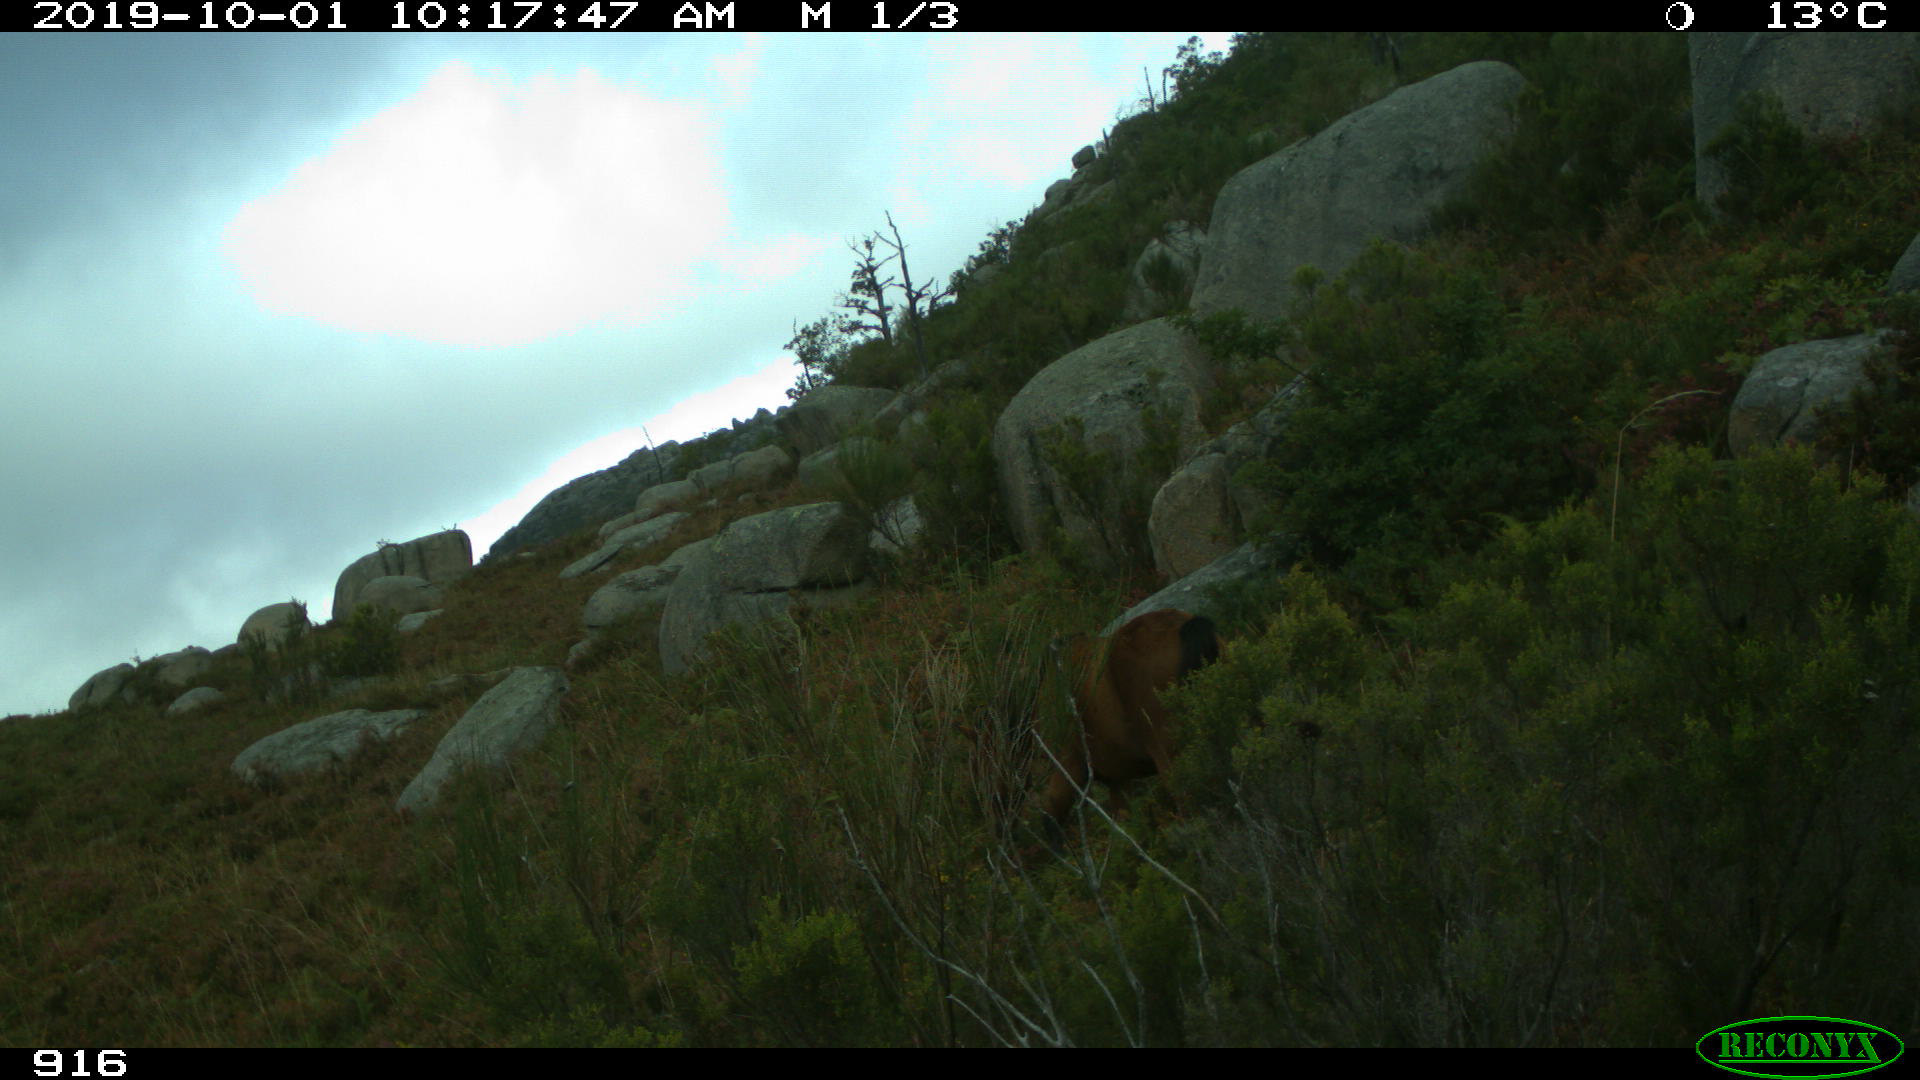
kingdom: Animalia
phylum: Chordata
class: Mammalia
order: Perissodactyla
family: Equidae
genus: Equus
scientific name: Equus caballus
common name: Horse
